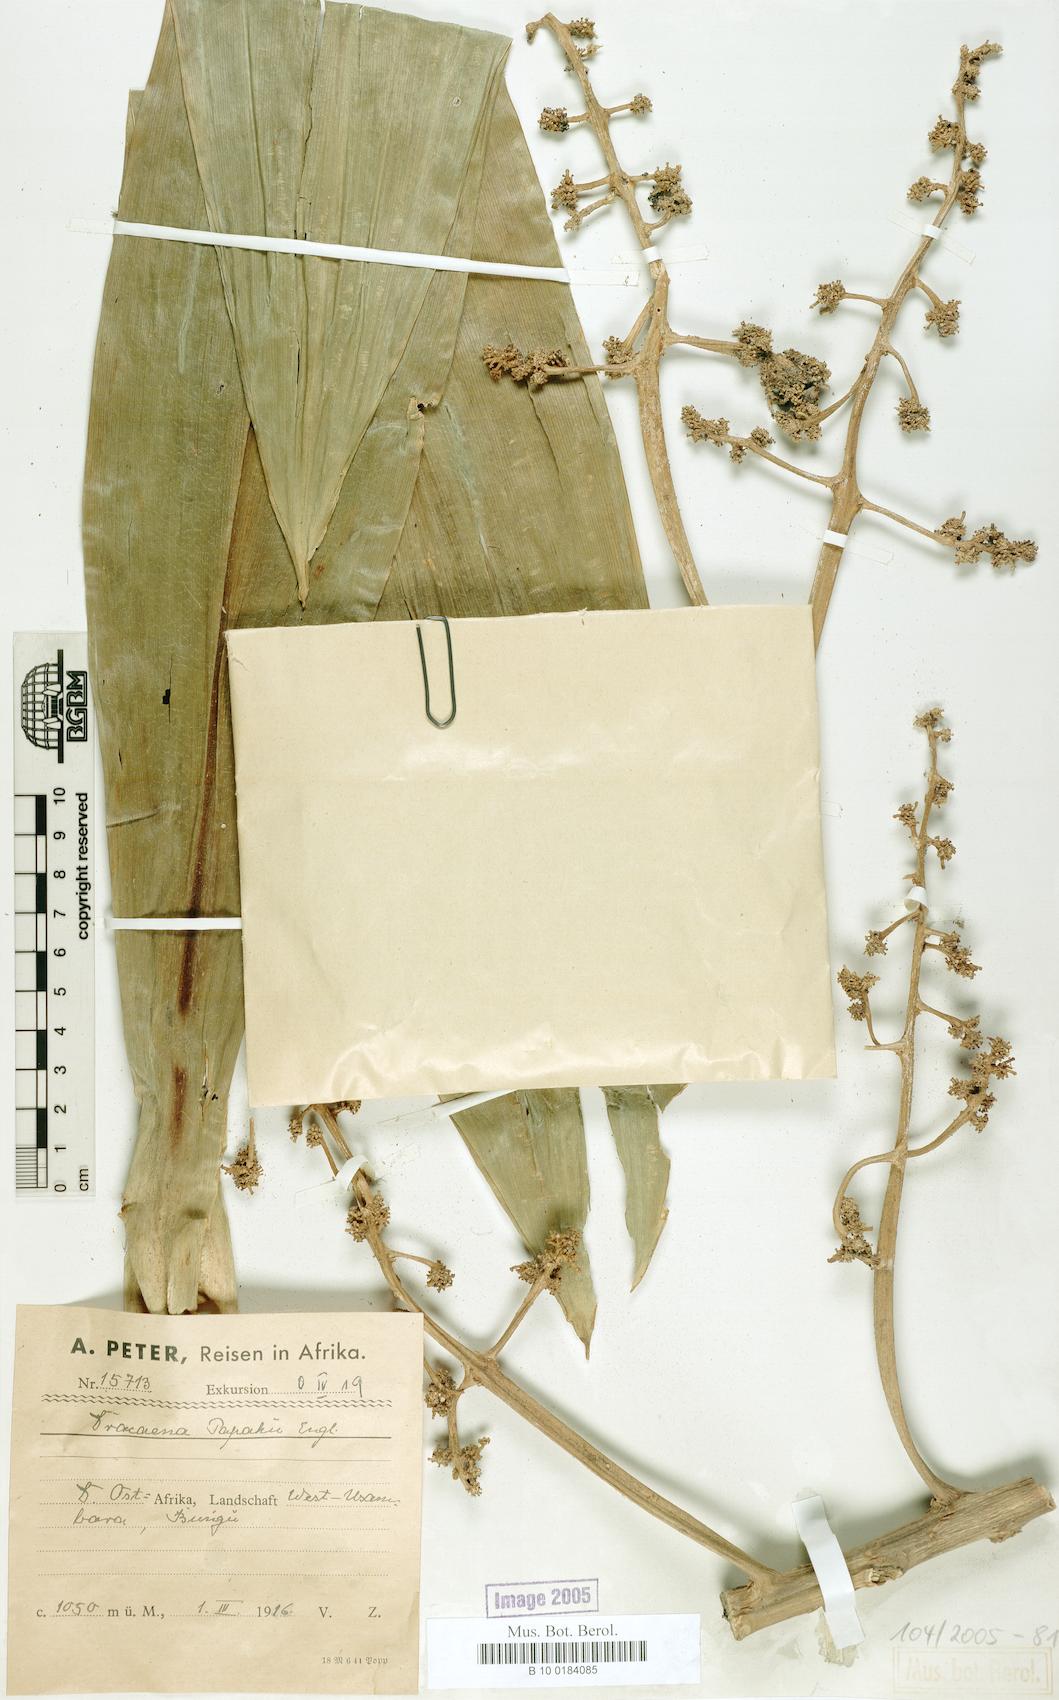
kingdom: Plantae
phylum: Tracheophyta
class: Liliopsida
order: Asparagales
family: Asparagaceae
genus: Dracaena
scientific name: Dracaena steudneri
